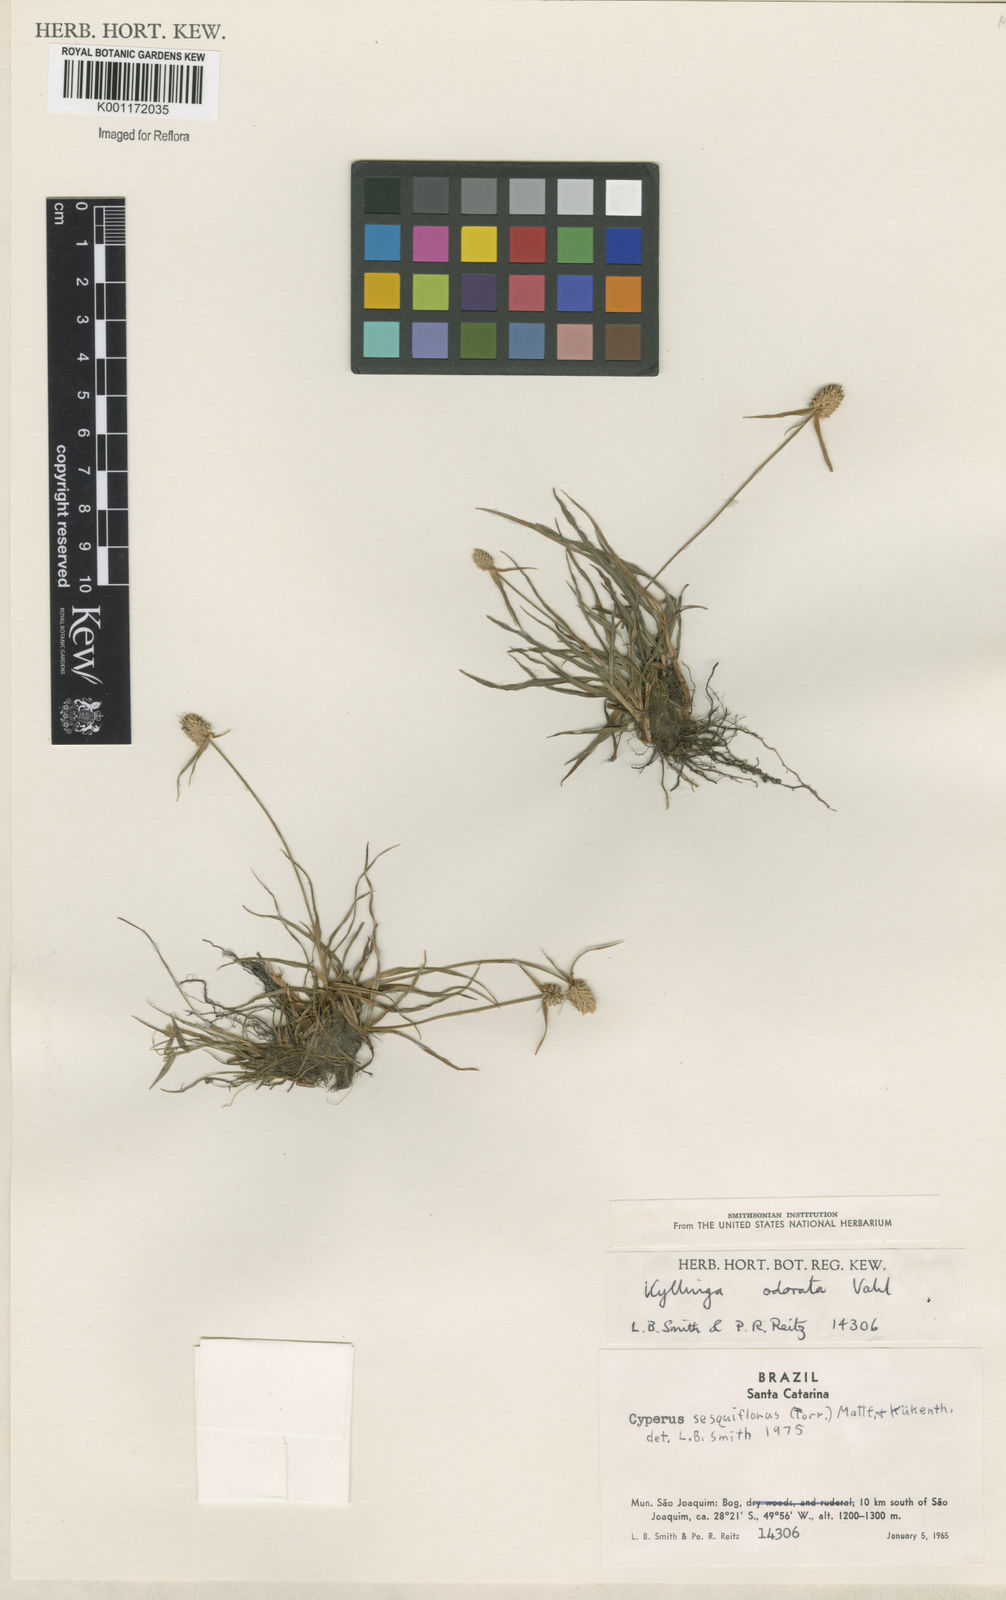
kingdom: Plantae
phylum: Tracheophyta
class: Liliopsida
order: Poales
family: Cyperaceae
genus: Cyperus
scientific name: Cyperus
